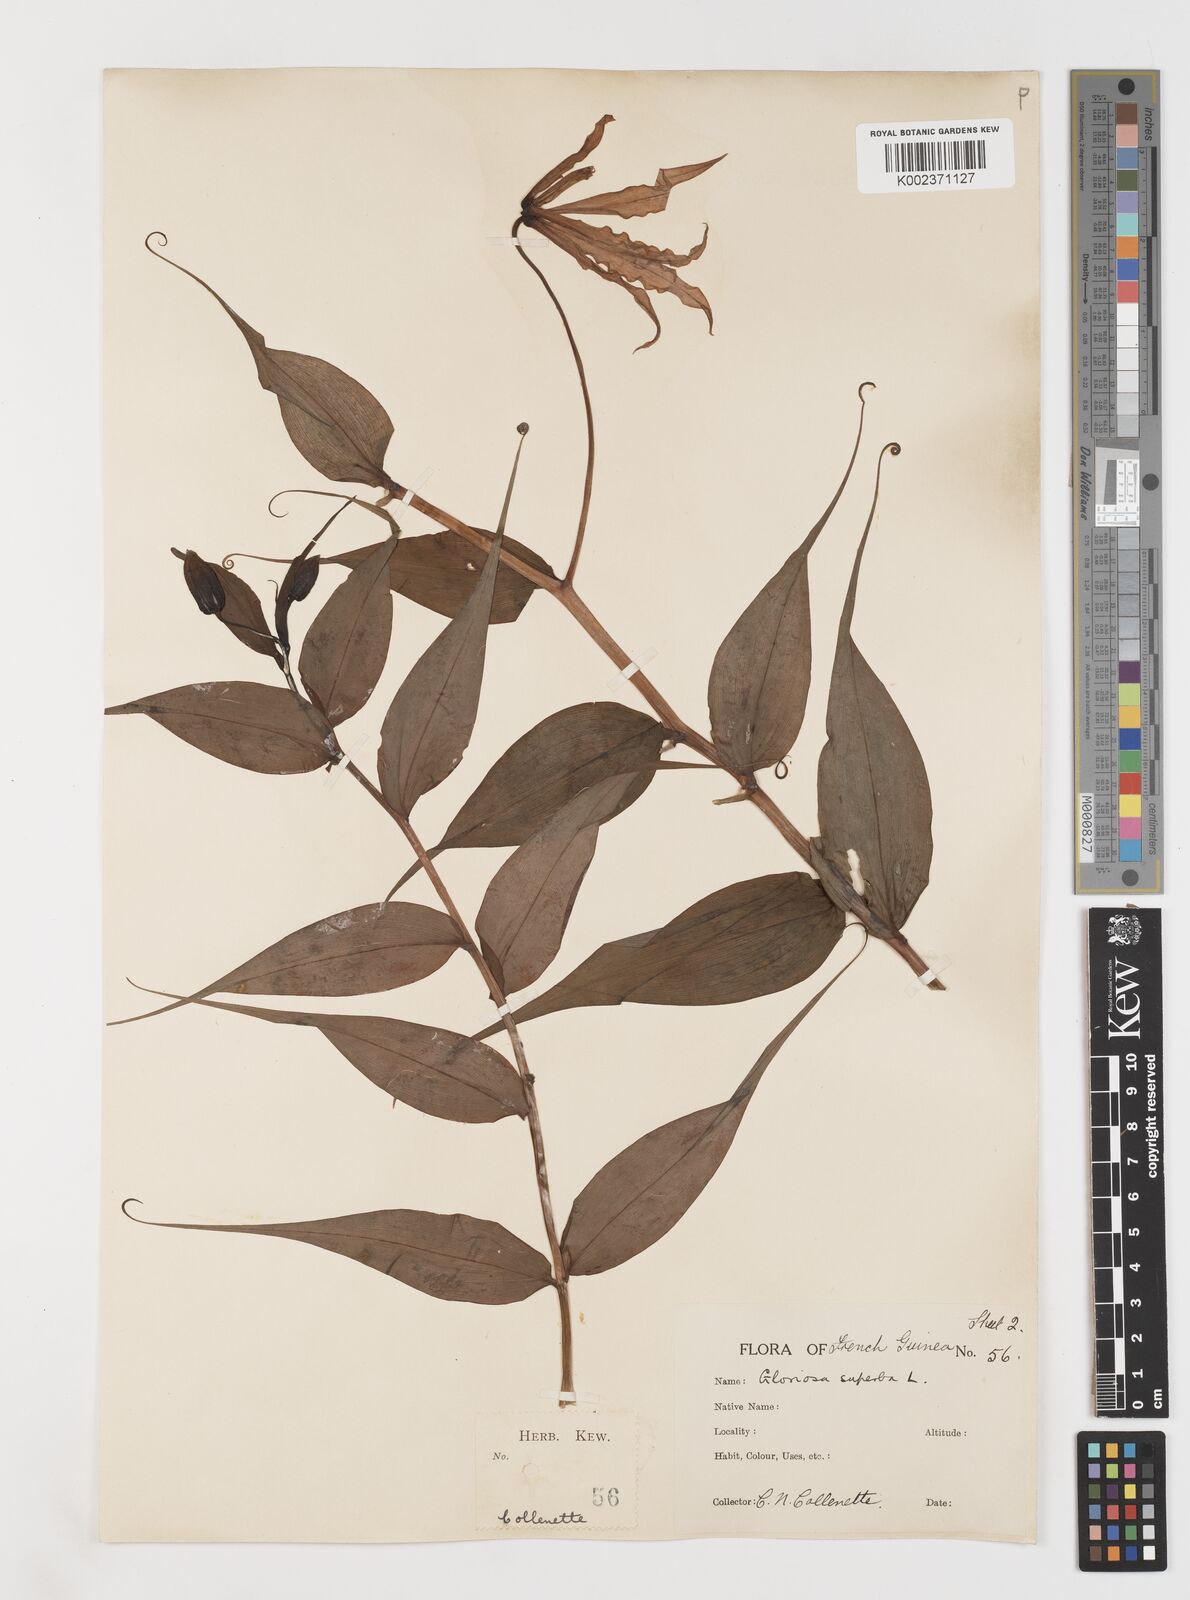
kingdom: Plantae
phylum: Tracheophyta
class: Liliopsida
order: Liliales
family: Colchicaceae
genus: Gloriosa
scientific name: Gloriosa simplex
